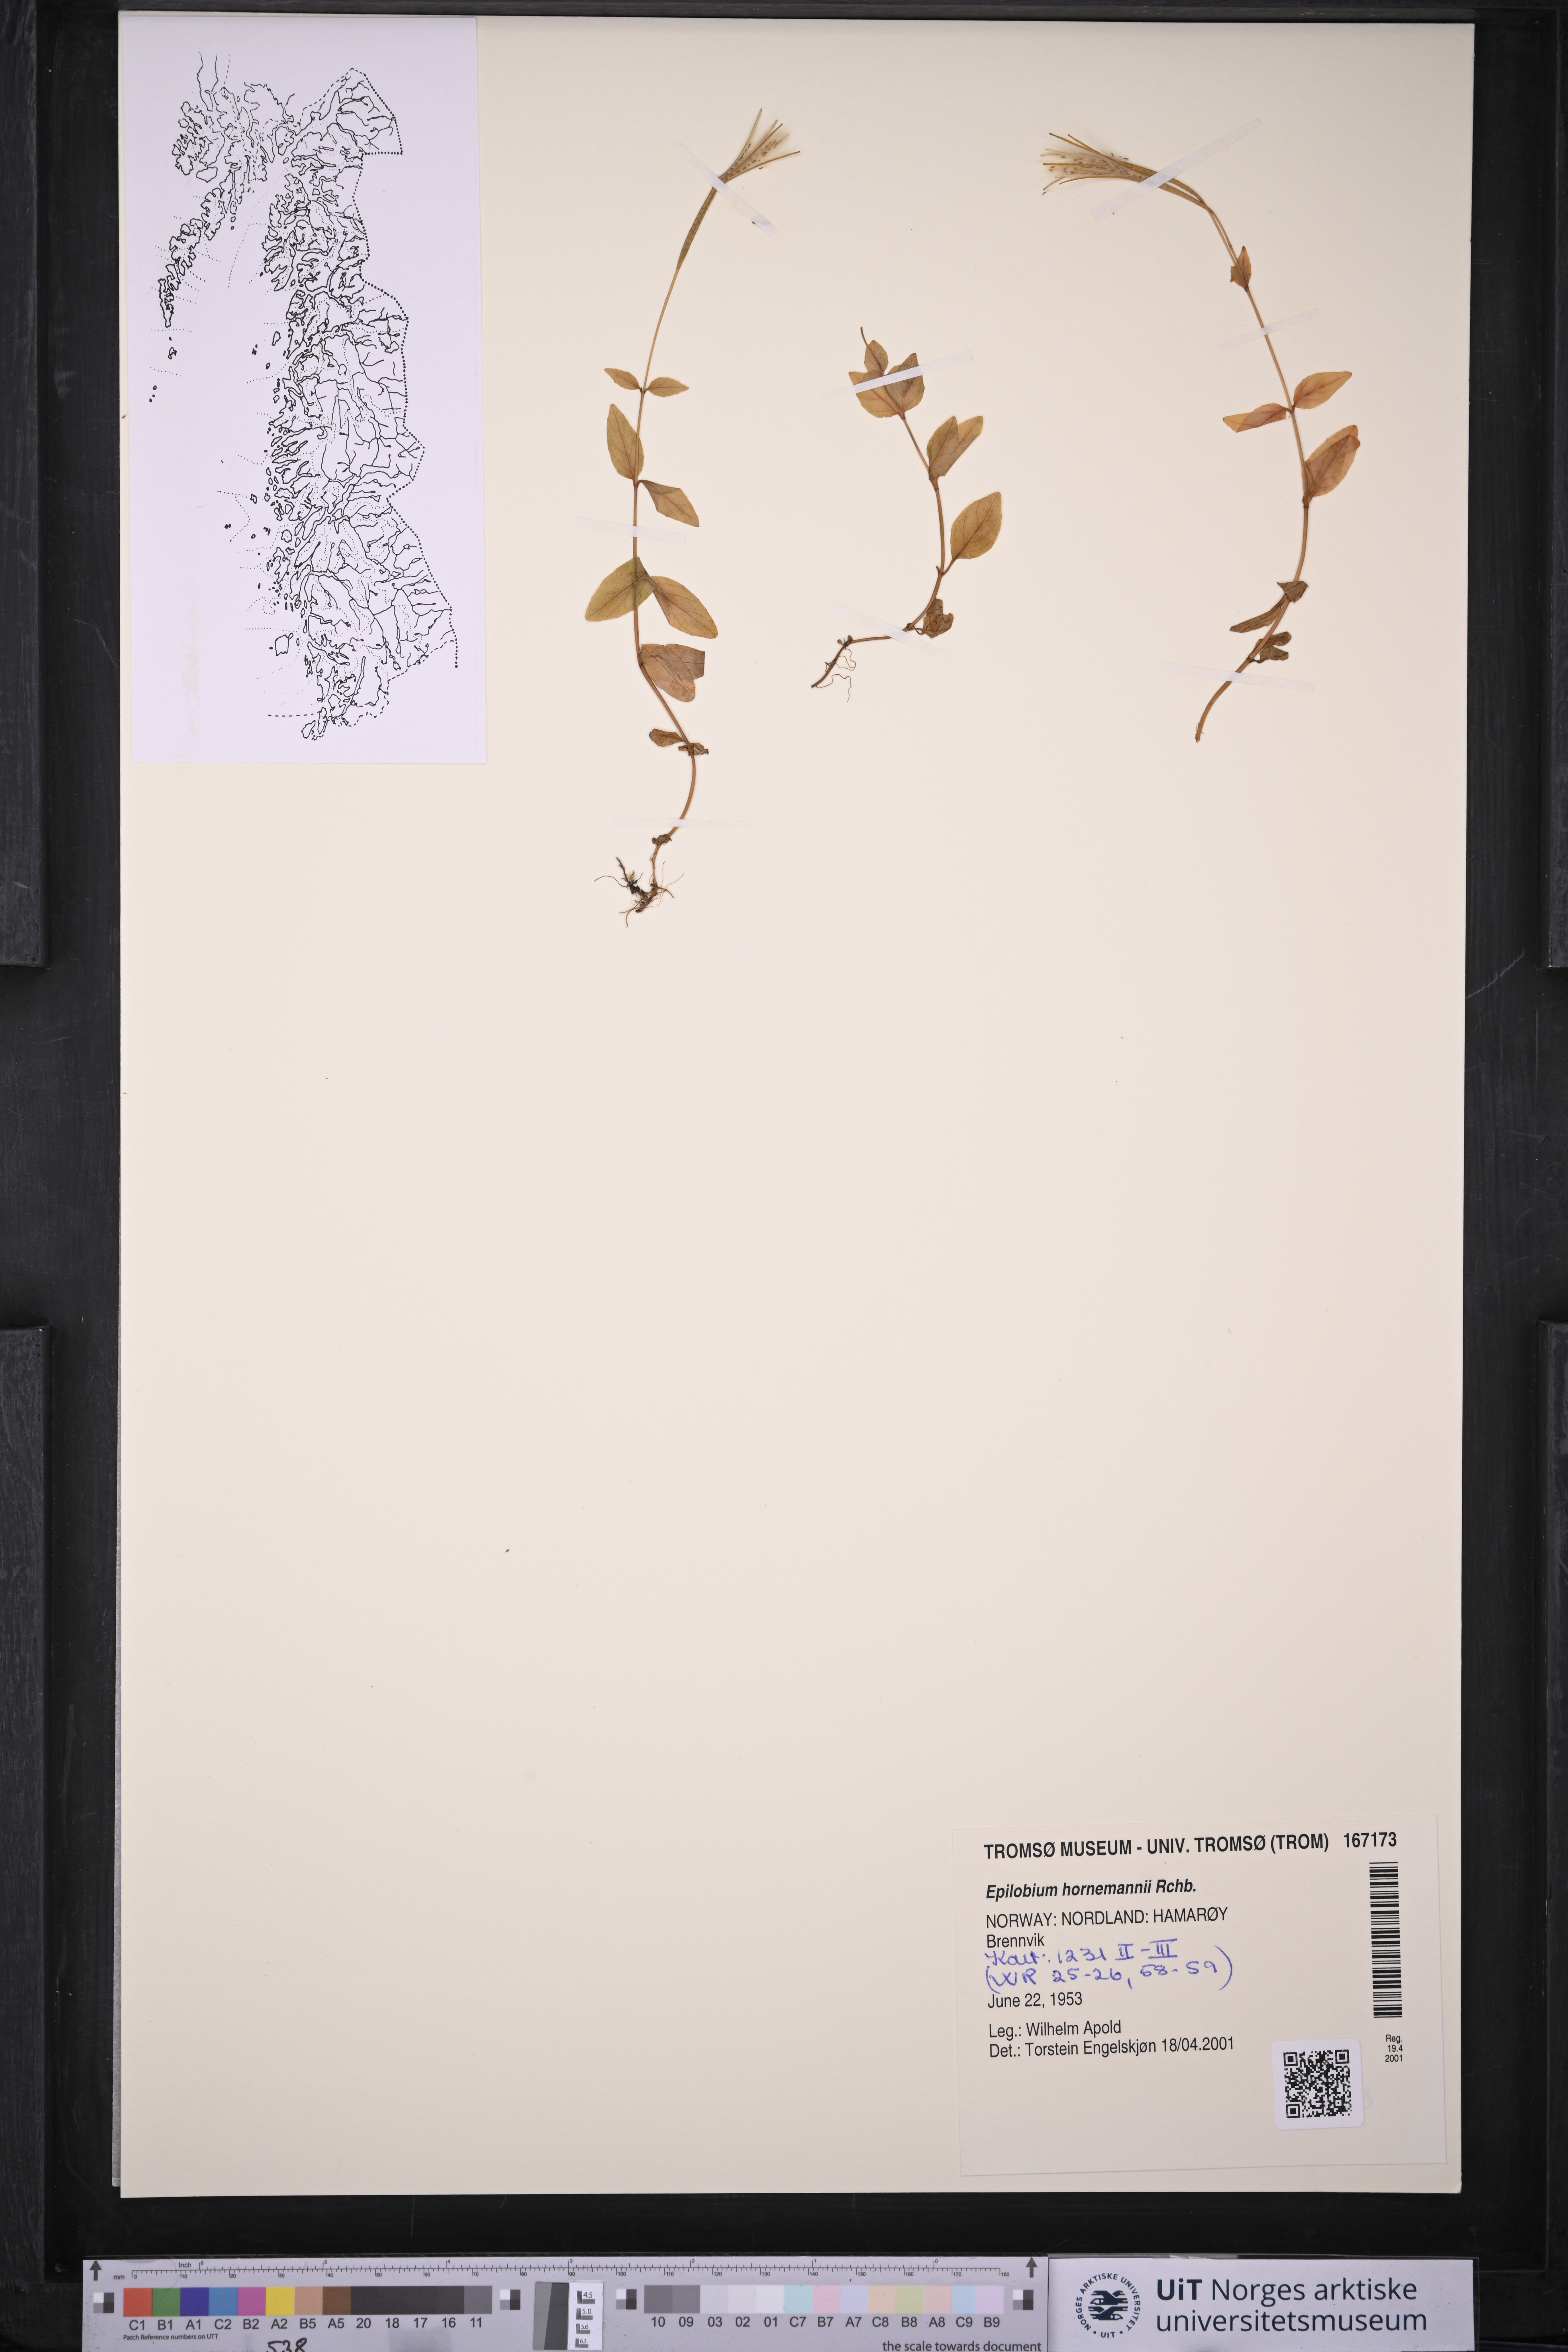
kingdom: Plantae
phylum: Tracheophyta
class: Magnoliopsida
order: Myrtales
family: Onagraceae
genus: Epilobium
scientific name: Epilobium hornemannii
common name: Hornemann's willowherb
